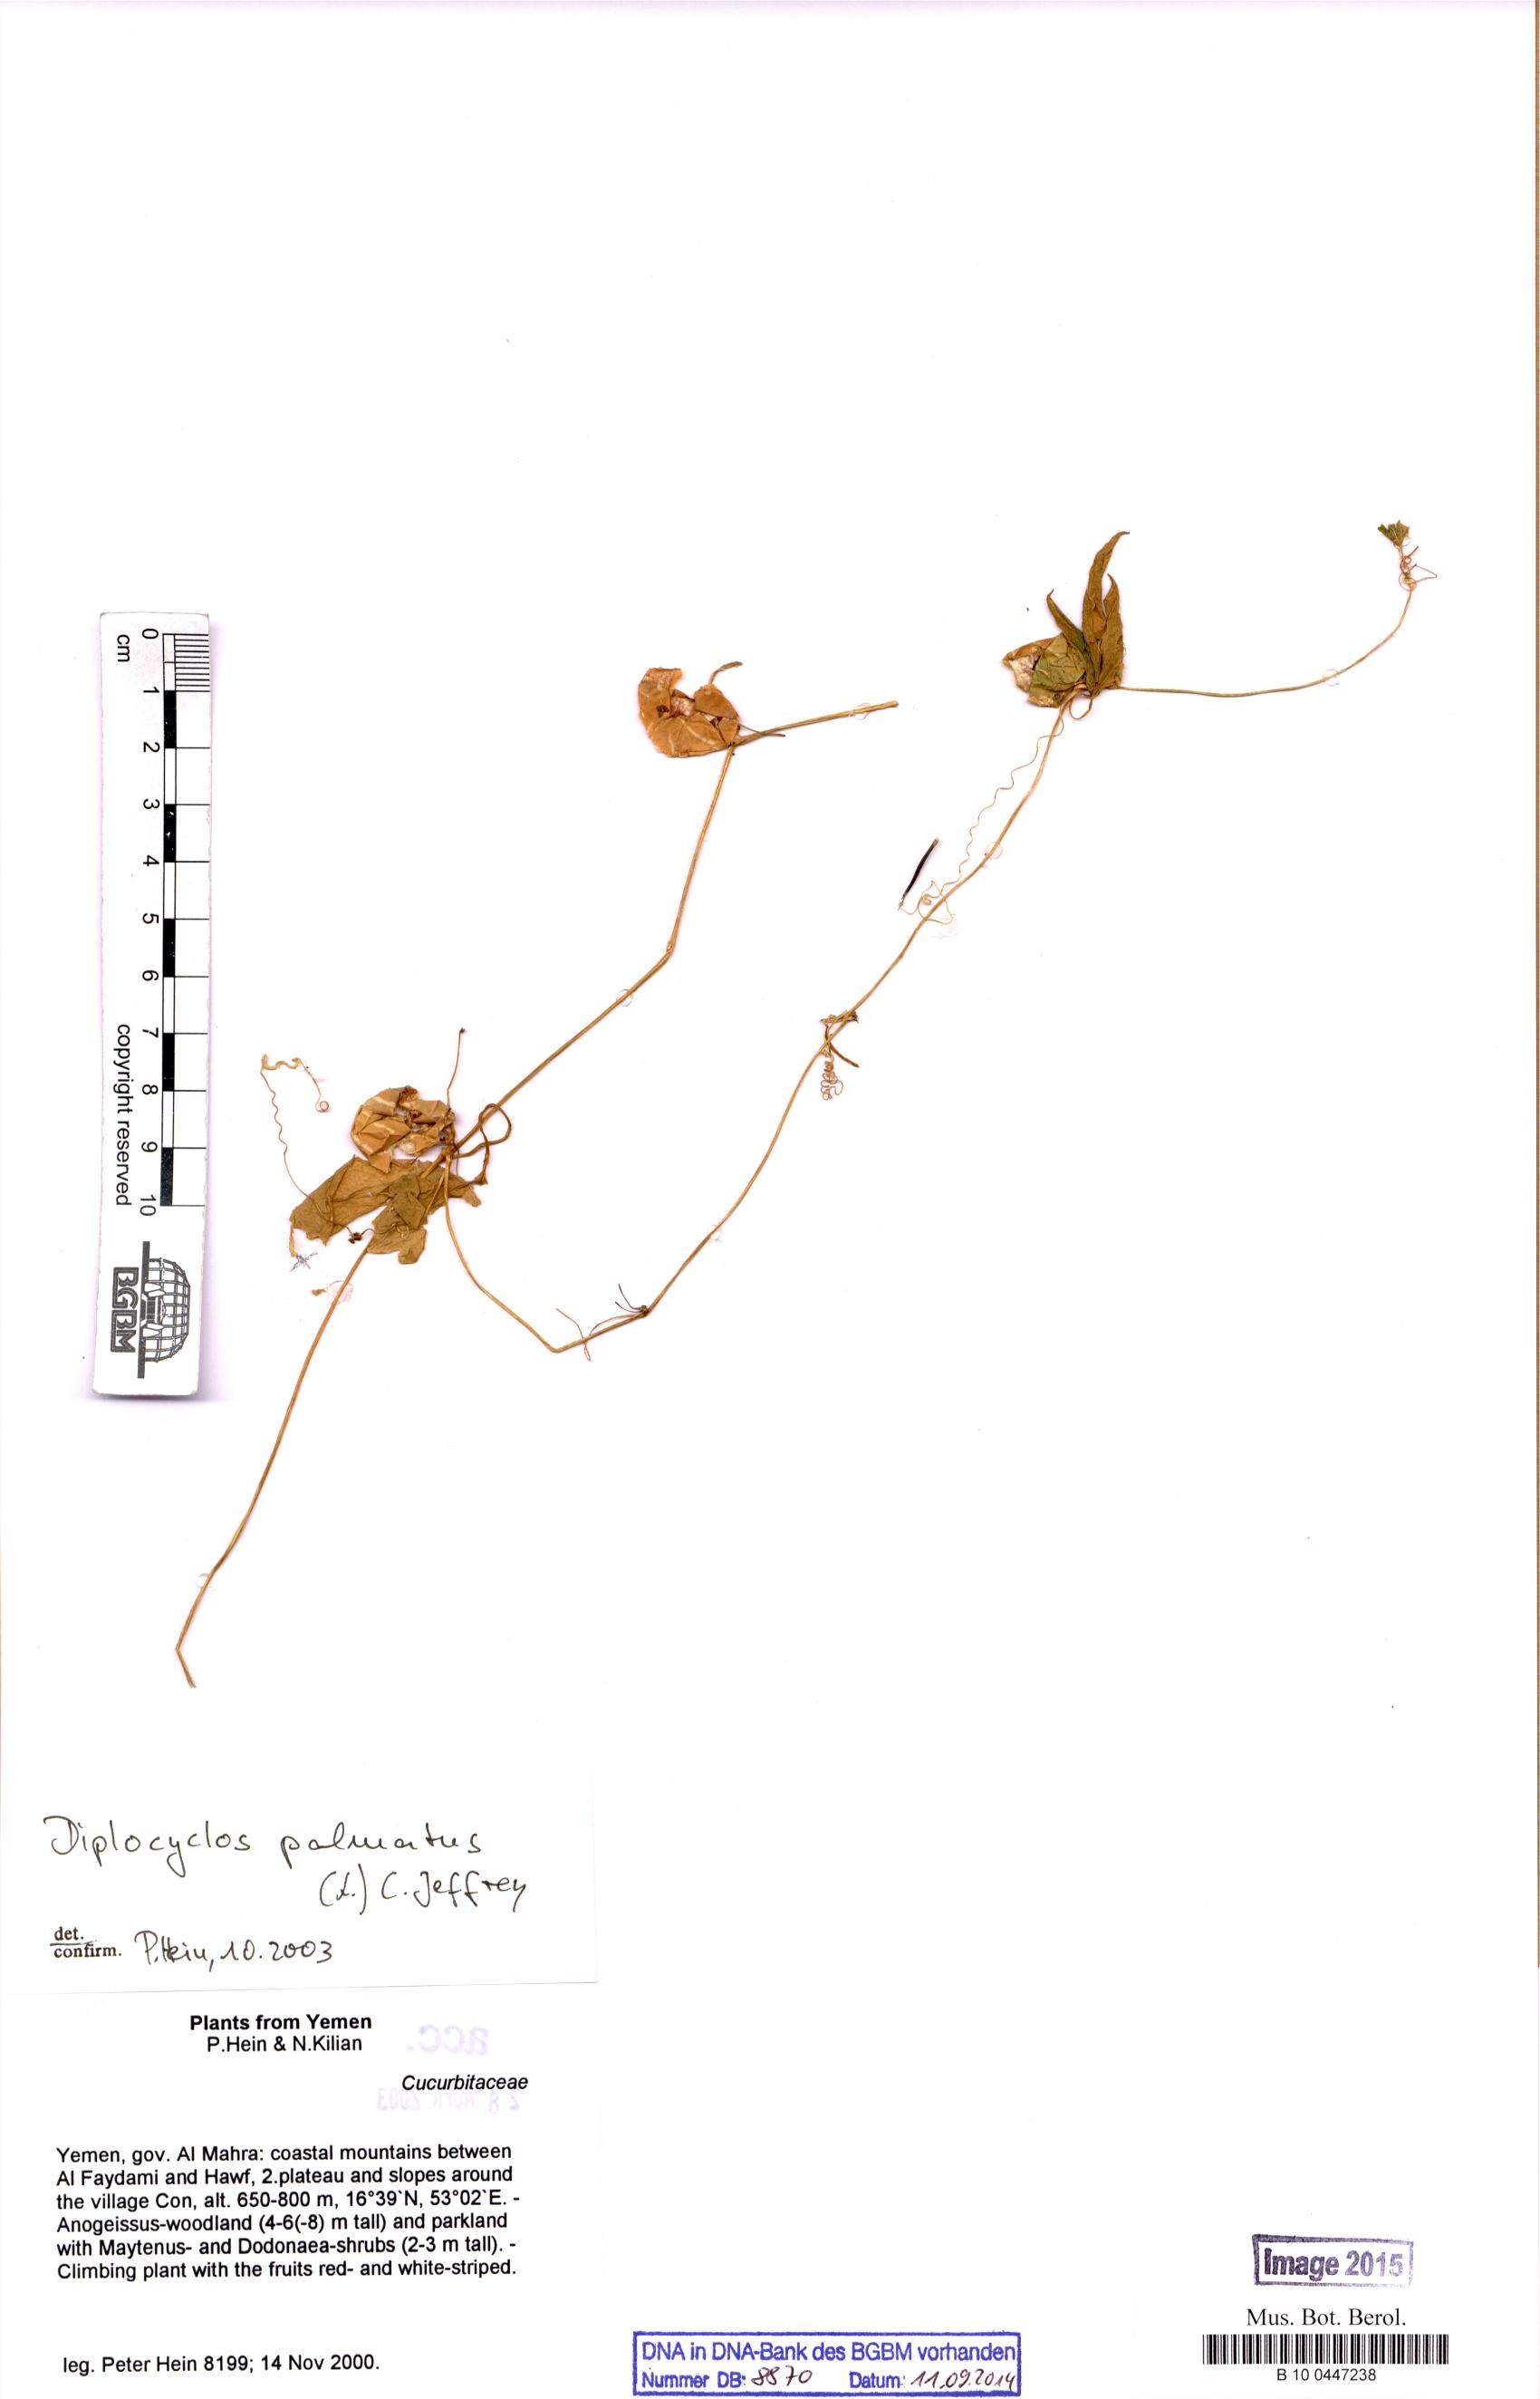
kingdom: Plantae
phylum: Tracheophyta
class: Magnoliopsida
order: Cucurbitales
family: Cucurbitaceae
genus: Diplocyclos
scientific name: Diplocyclos palmatus
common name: Striped-cucumber
